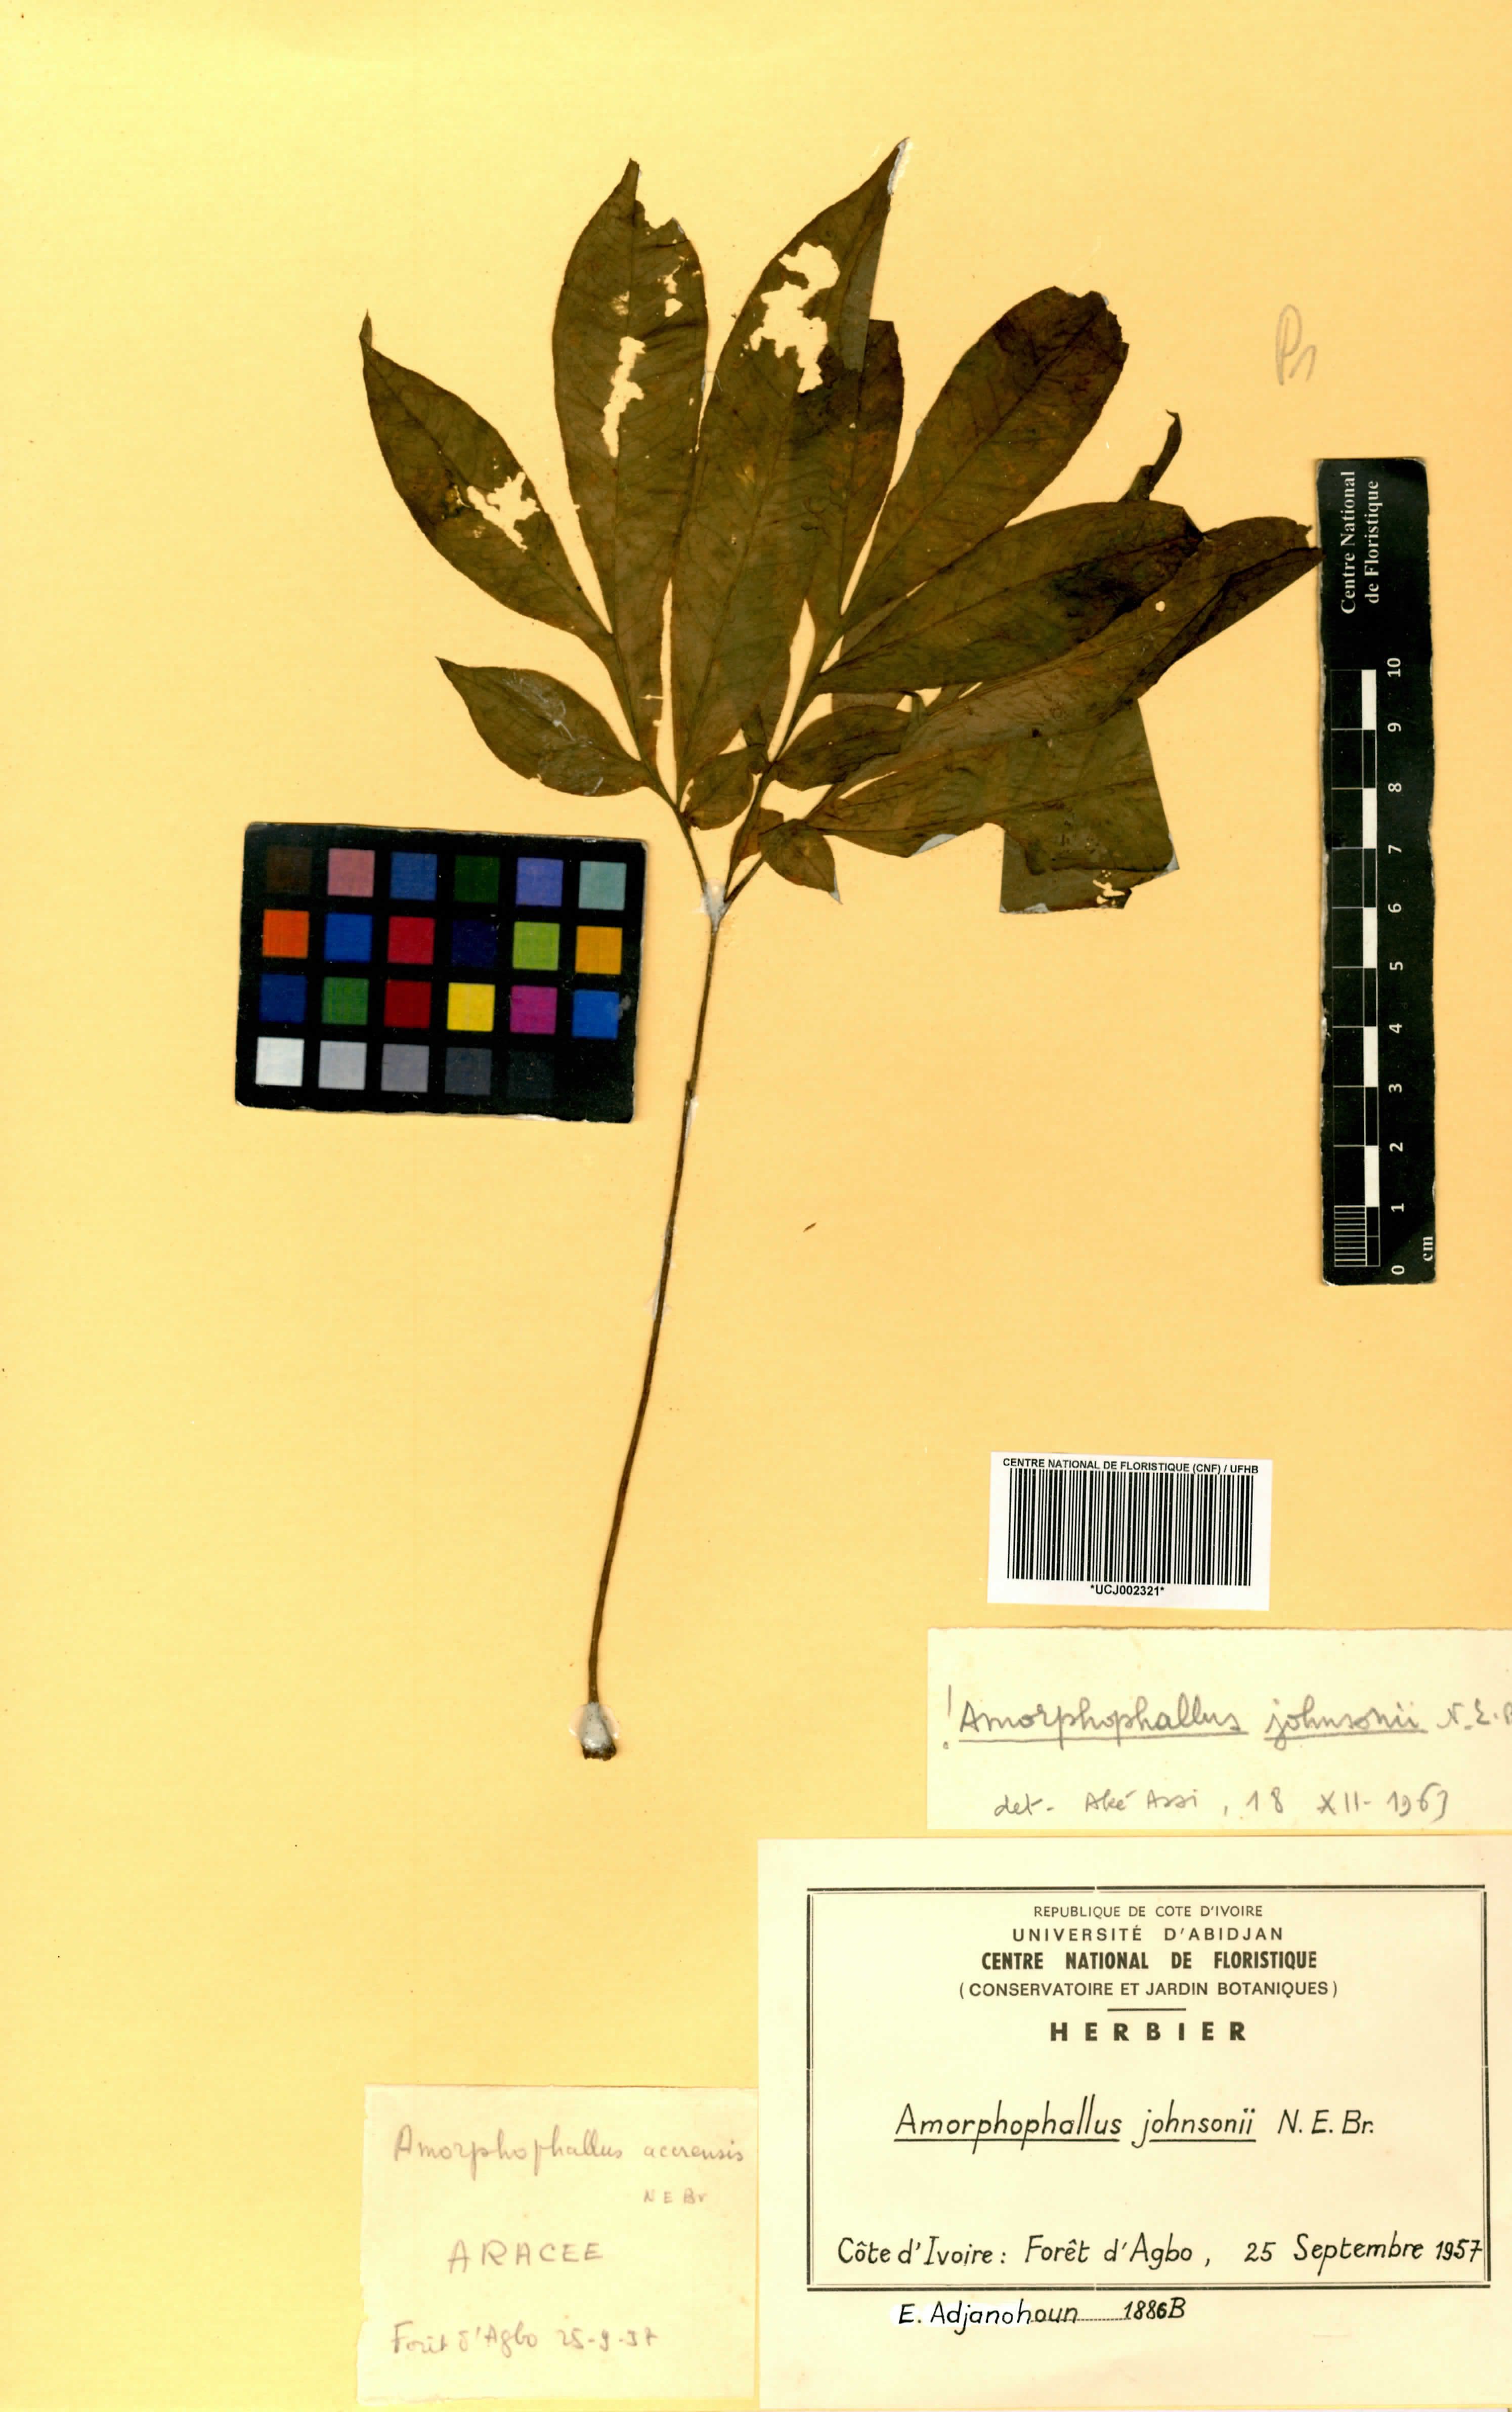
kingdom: Plantae
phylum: Tracheophyta
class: Liliopsida
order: Alismatales
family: Araceae
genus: Amorphophallus
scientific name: Amorphophallus johnsonii
